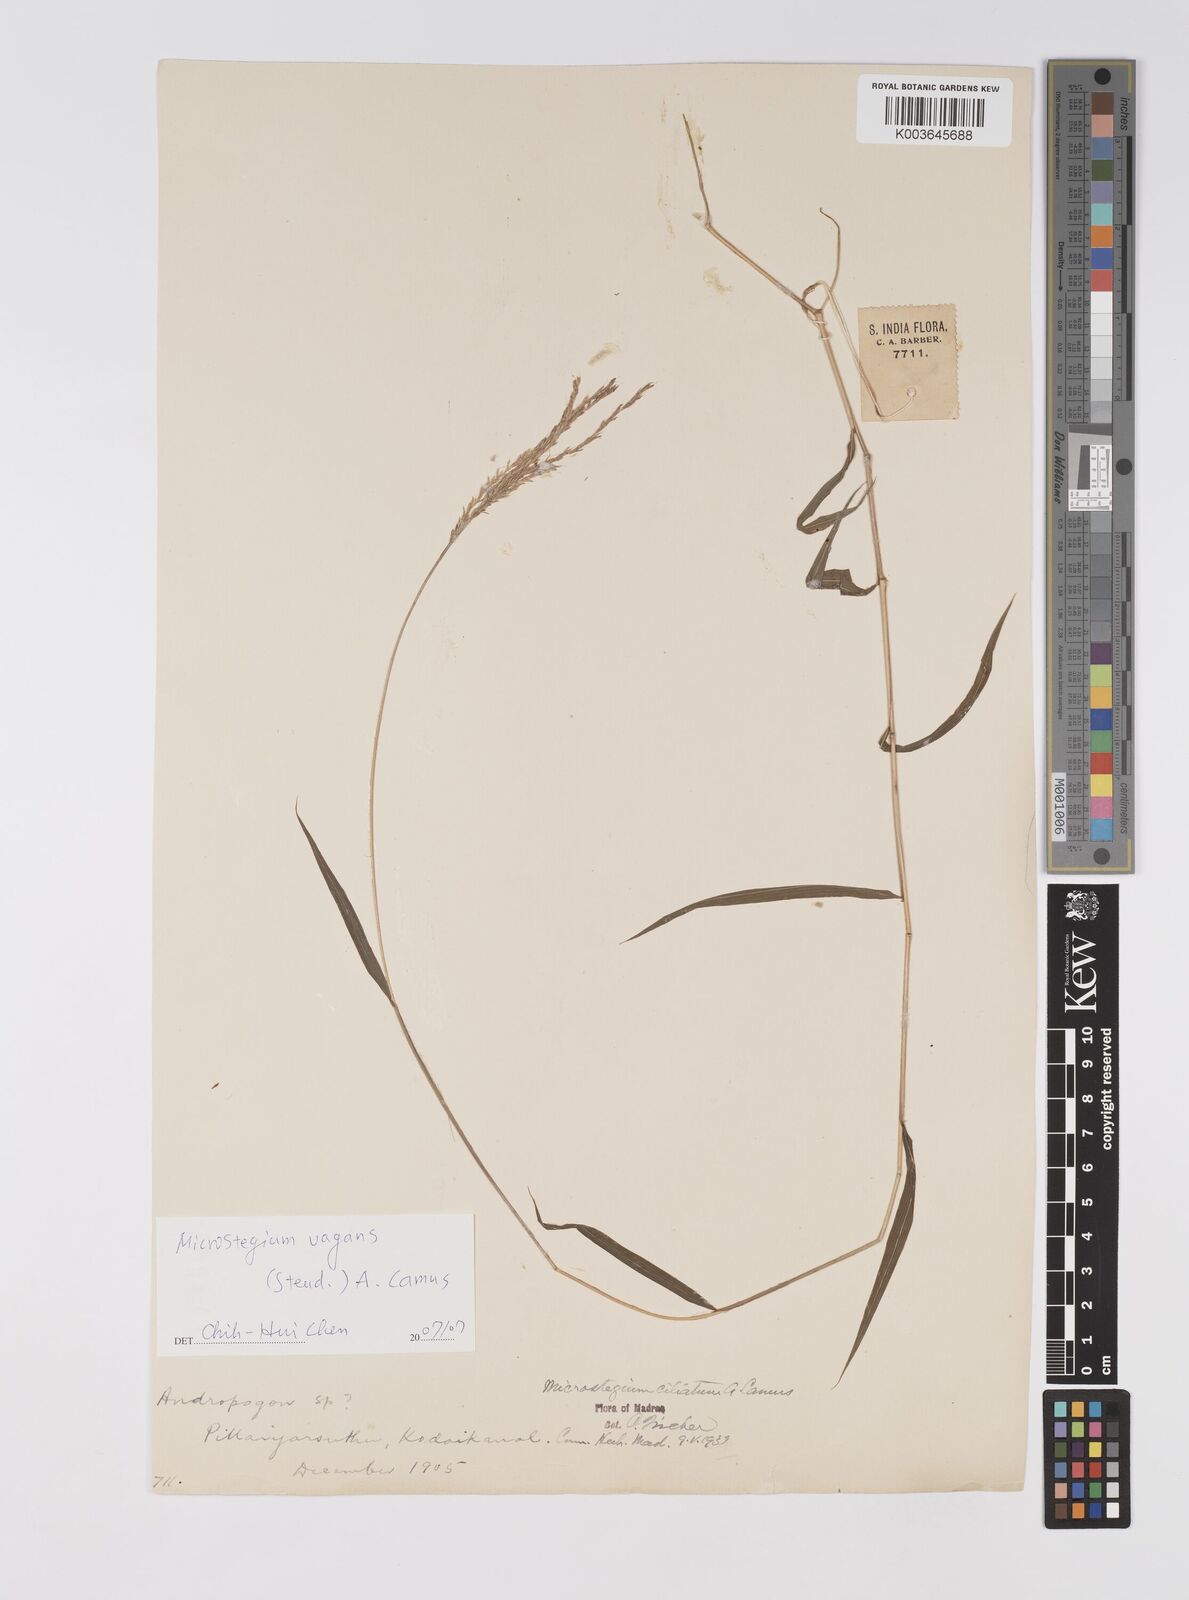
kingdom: Plantae
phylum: Tracheophyta
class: Liliopsida
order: Poales
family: Poaceae
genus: Microstegium
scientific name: Microstegium fasciculatum
